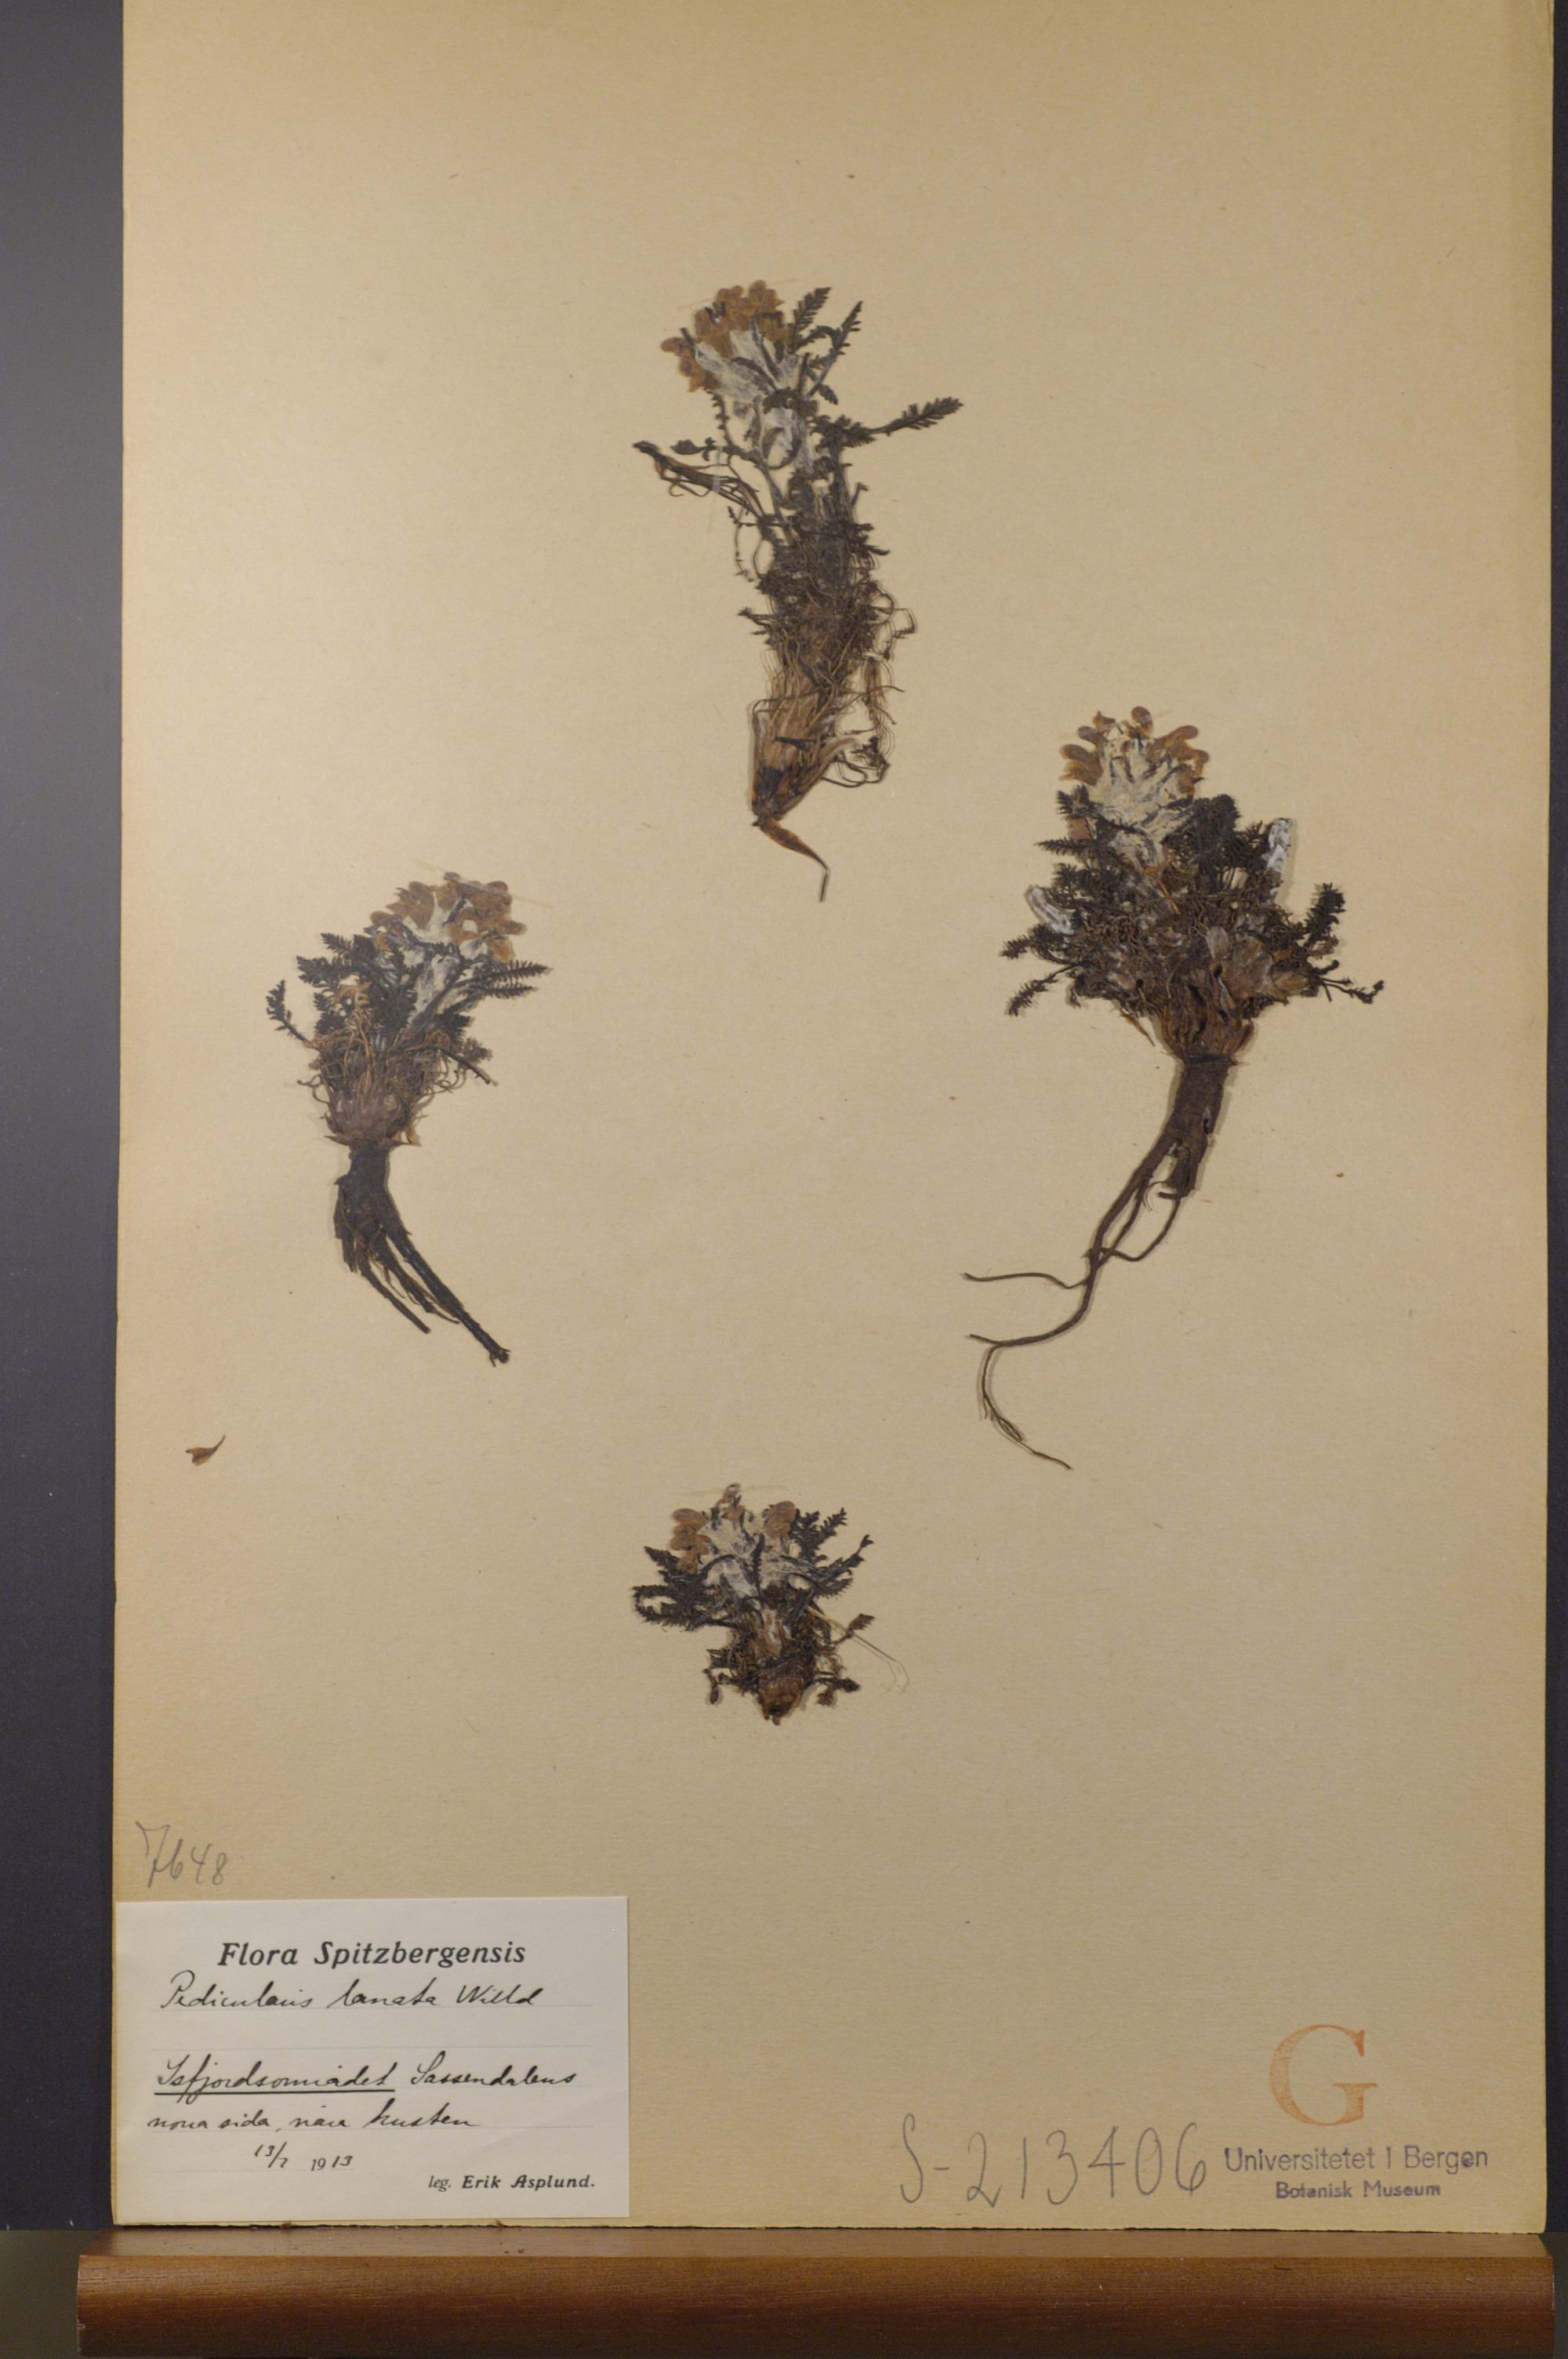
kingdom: Plantae
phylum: Tracheophyta
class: Magnoliopsida
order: Lamiales
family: Orobanchaceae
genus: Pedicularis
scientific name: Pedicularis lanata
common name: Woolly lousewort
